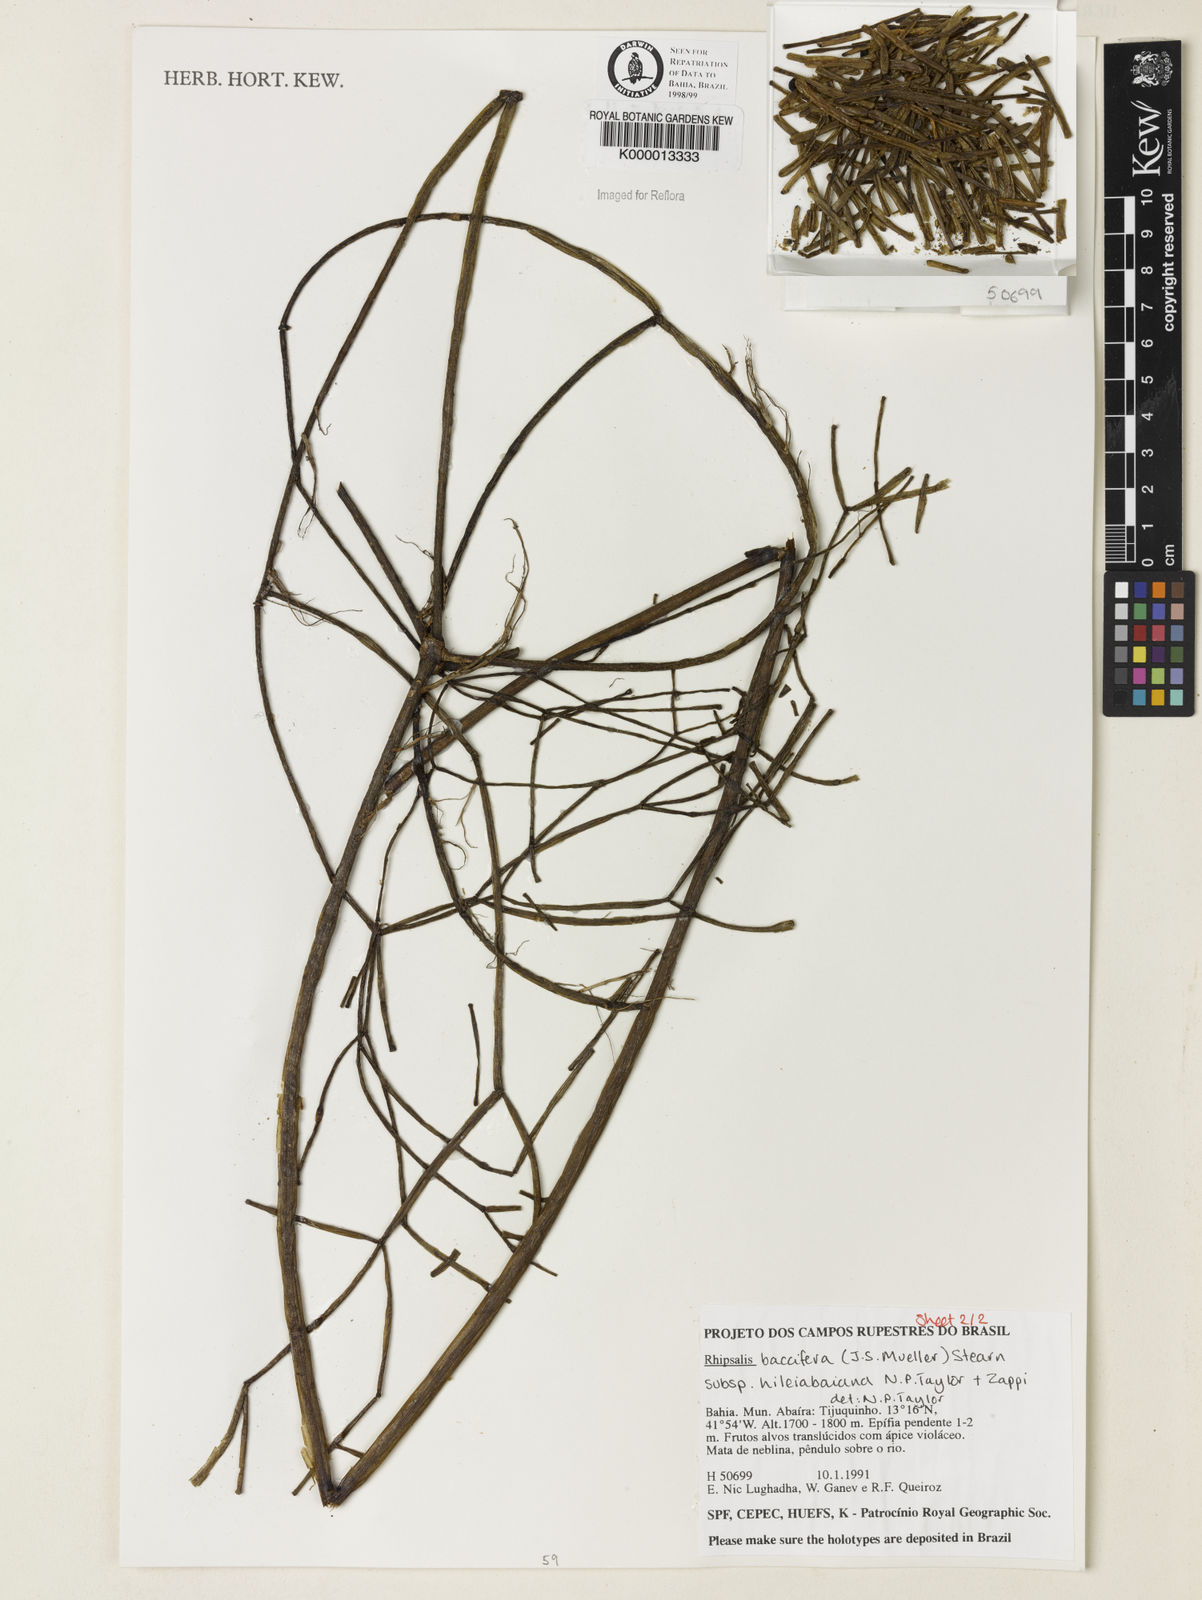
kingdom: Plantae
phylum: Tracheophyta
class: Magnoliopsida
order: Caryophyllales
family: Cactaceae
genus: Rhipsalis
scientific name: Rhipsalis hileiabaiana
